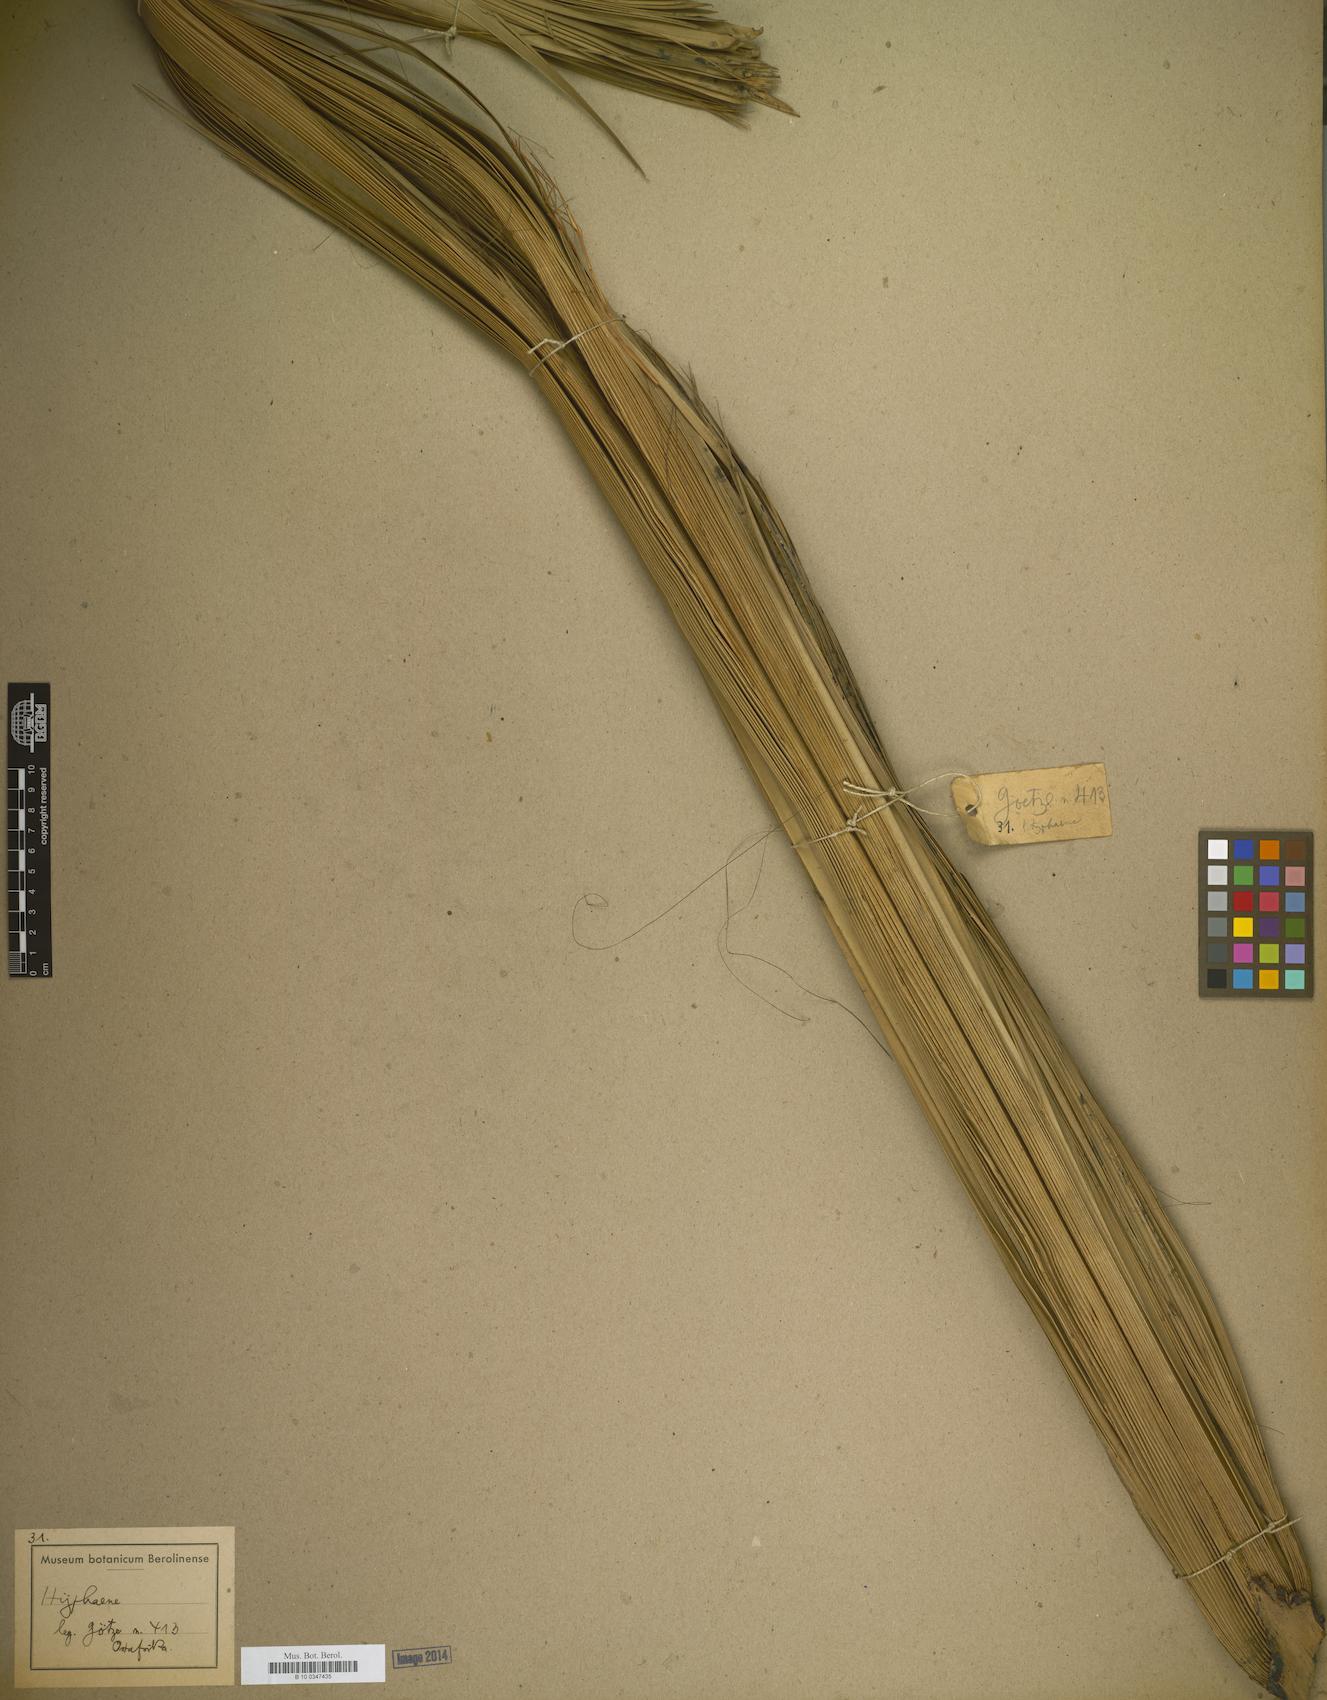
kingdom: Plantae
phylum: Tracheophyta
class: Liliopsida
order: Arecales
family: Arecaceae
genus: Hyphaene
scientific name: Hyphaene
